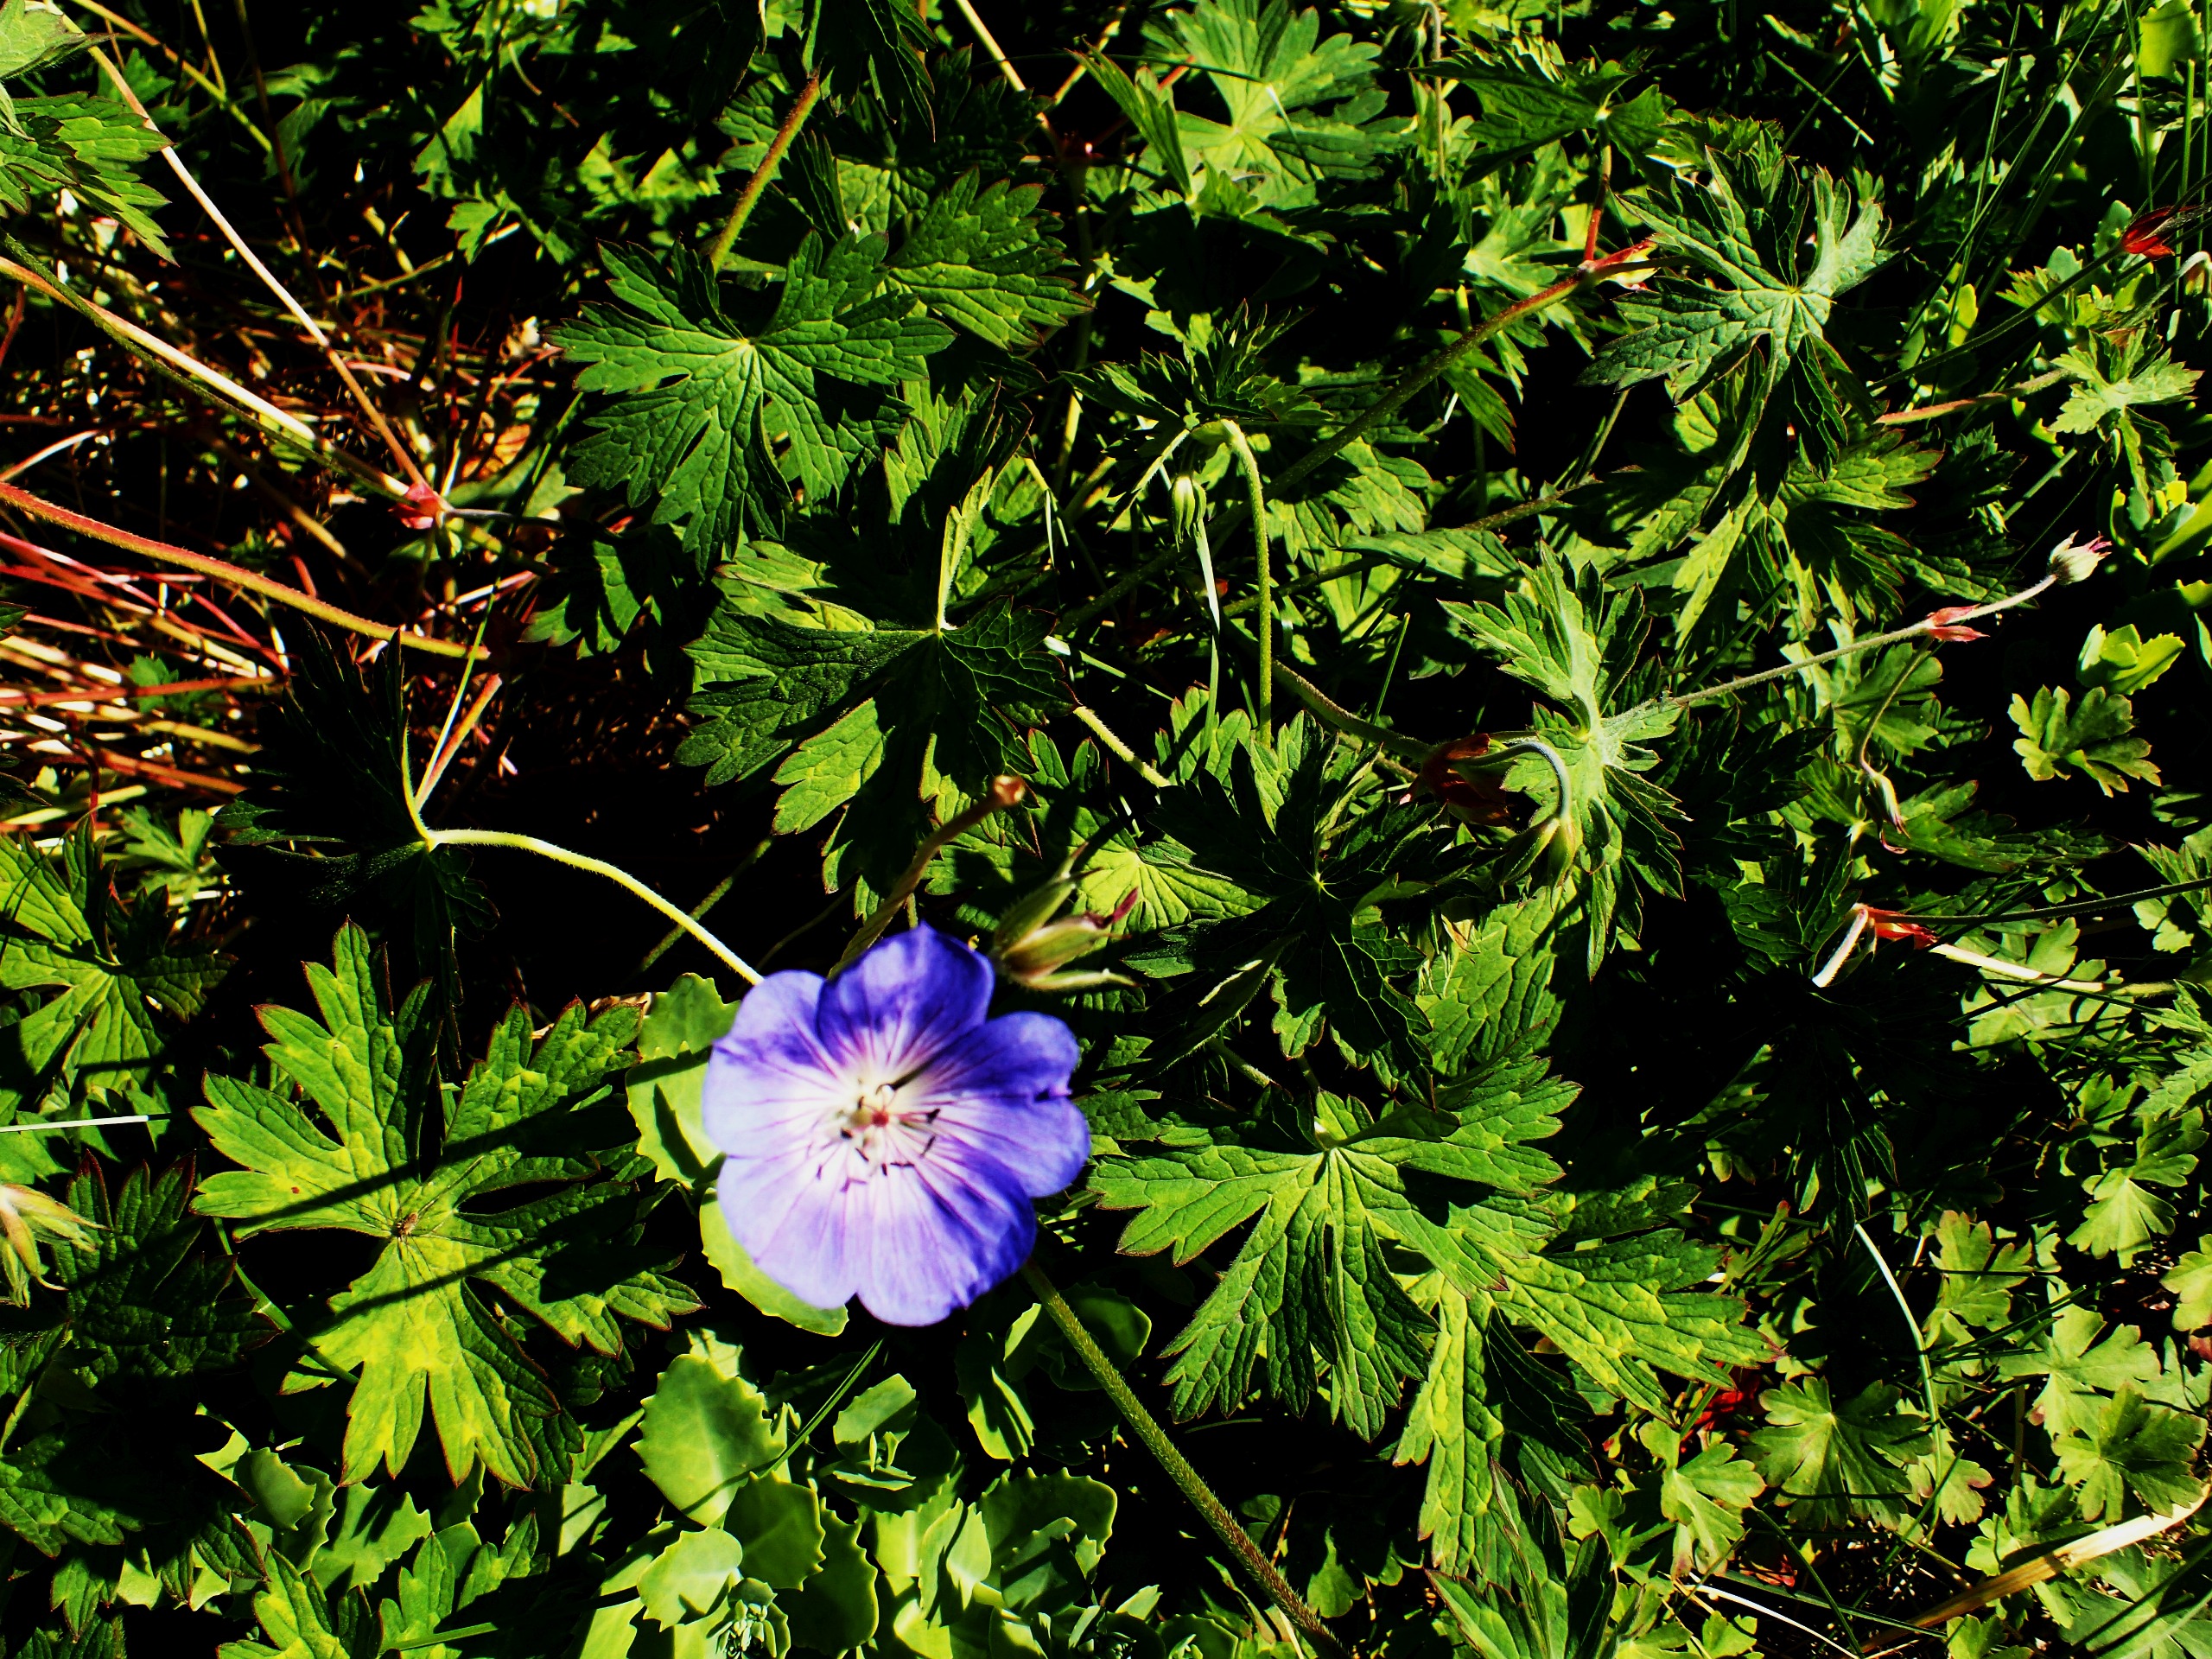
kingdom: Plantae
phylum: Tracheophyta
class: Magnoliopsida
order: Geraniales
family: Geraniaceae
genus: Geranium
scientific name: Geranium pratense
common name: Eng-storkenæb
